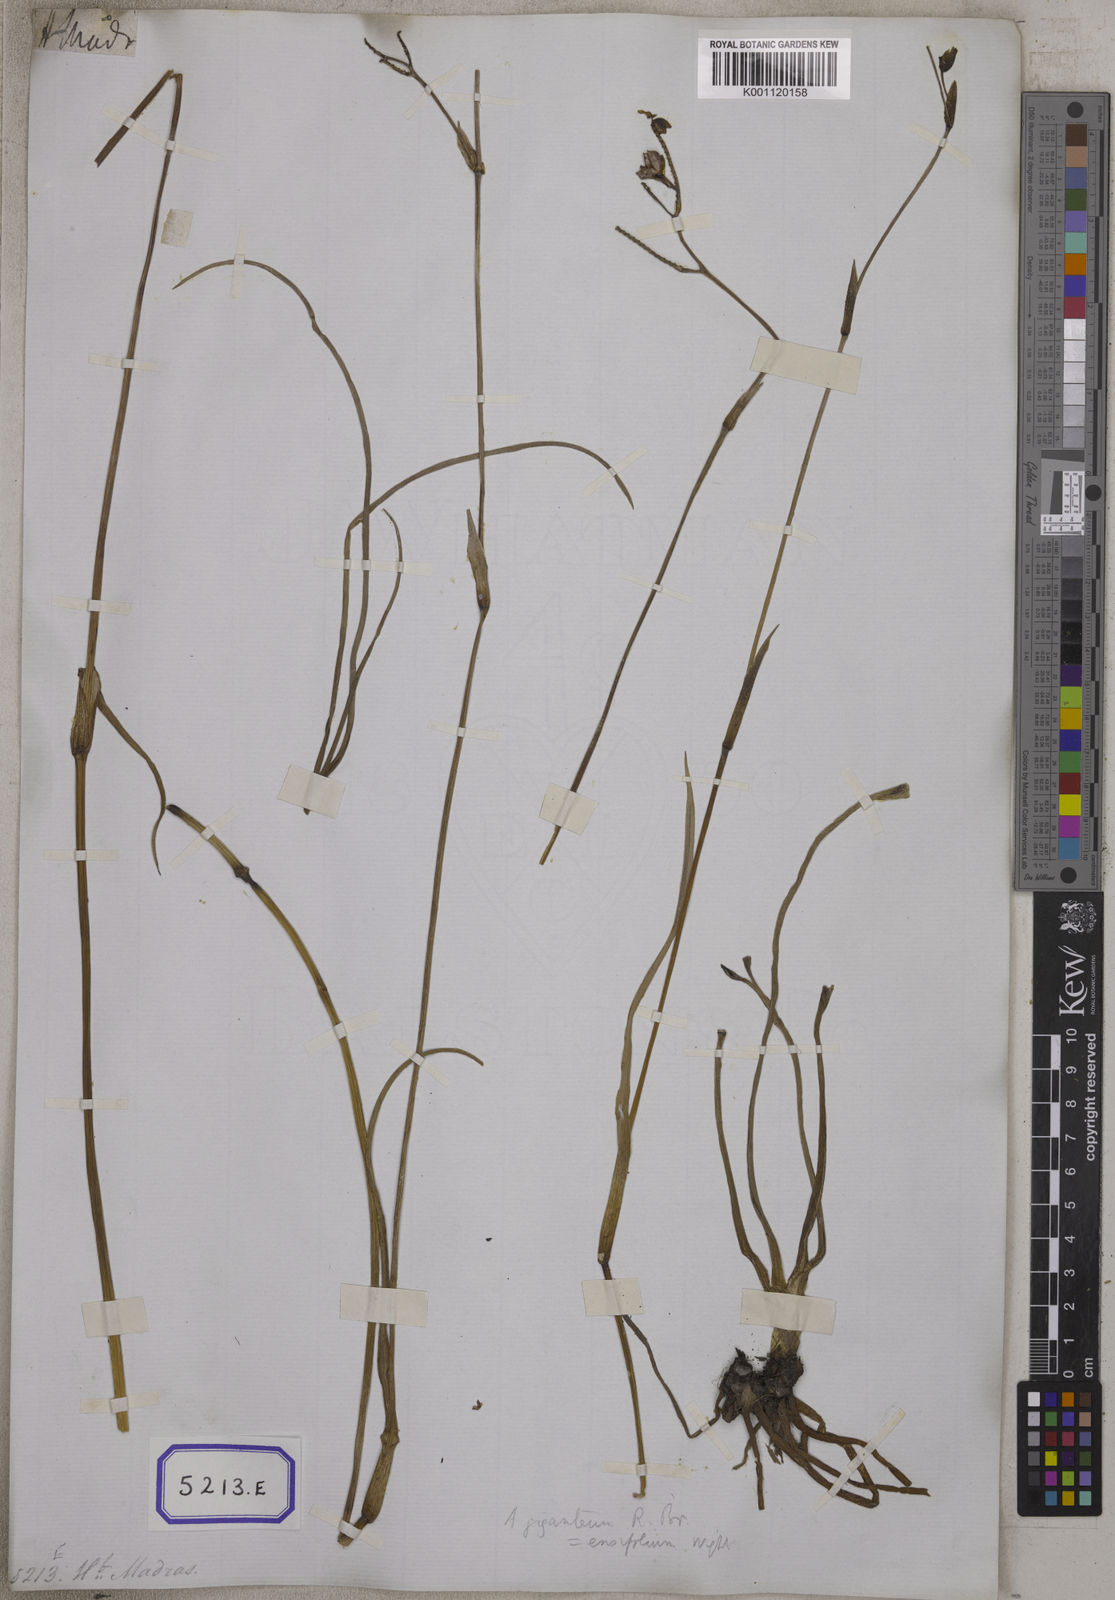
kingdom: Plantae
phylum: Tracheophyta
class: Liliopsida
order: Commelinales
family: Commelinaceae
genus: Aneilema
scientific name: Aneilema
